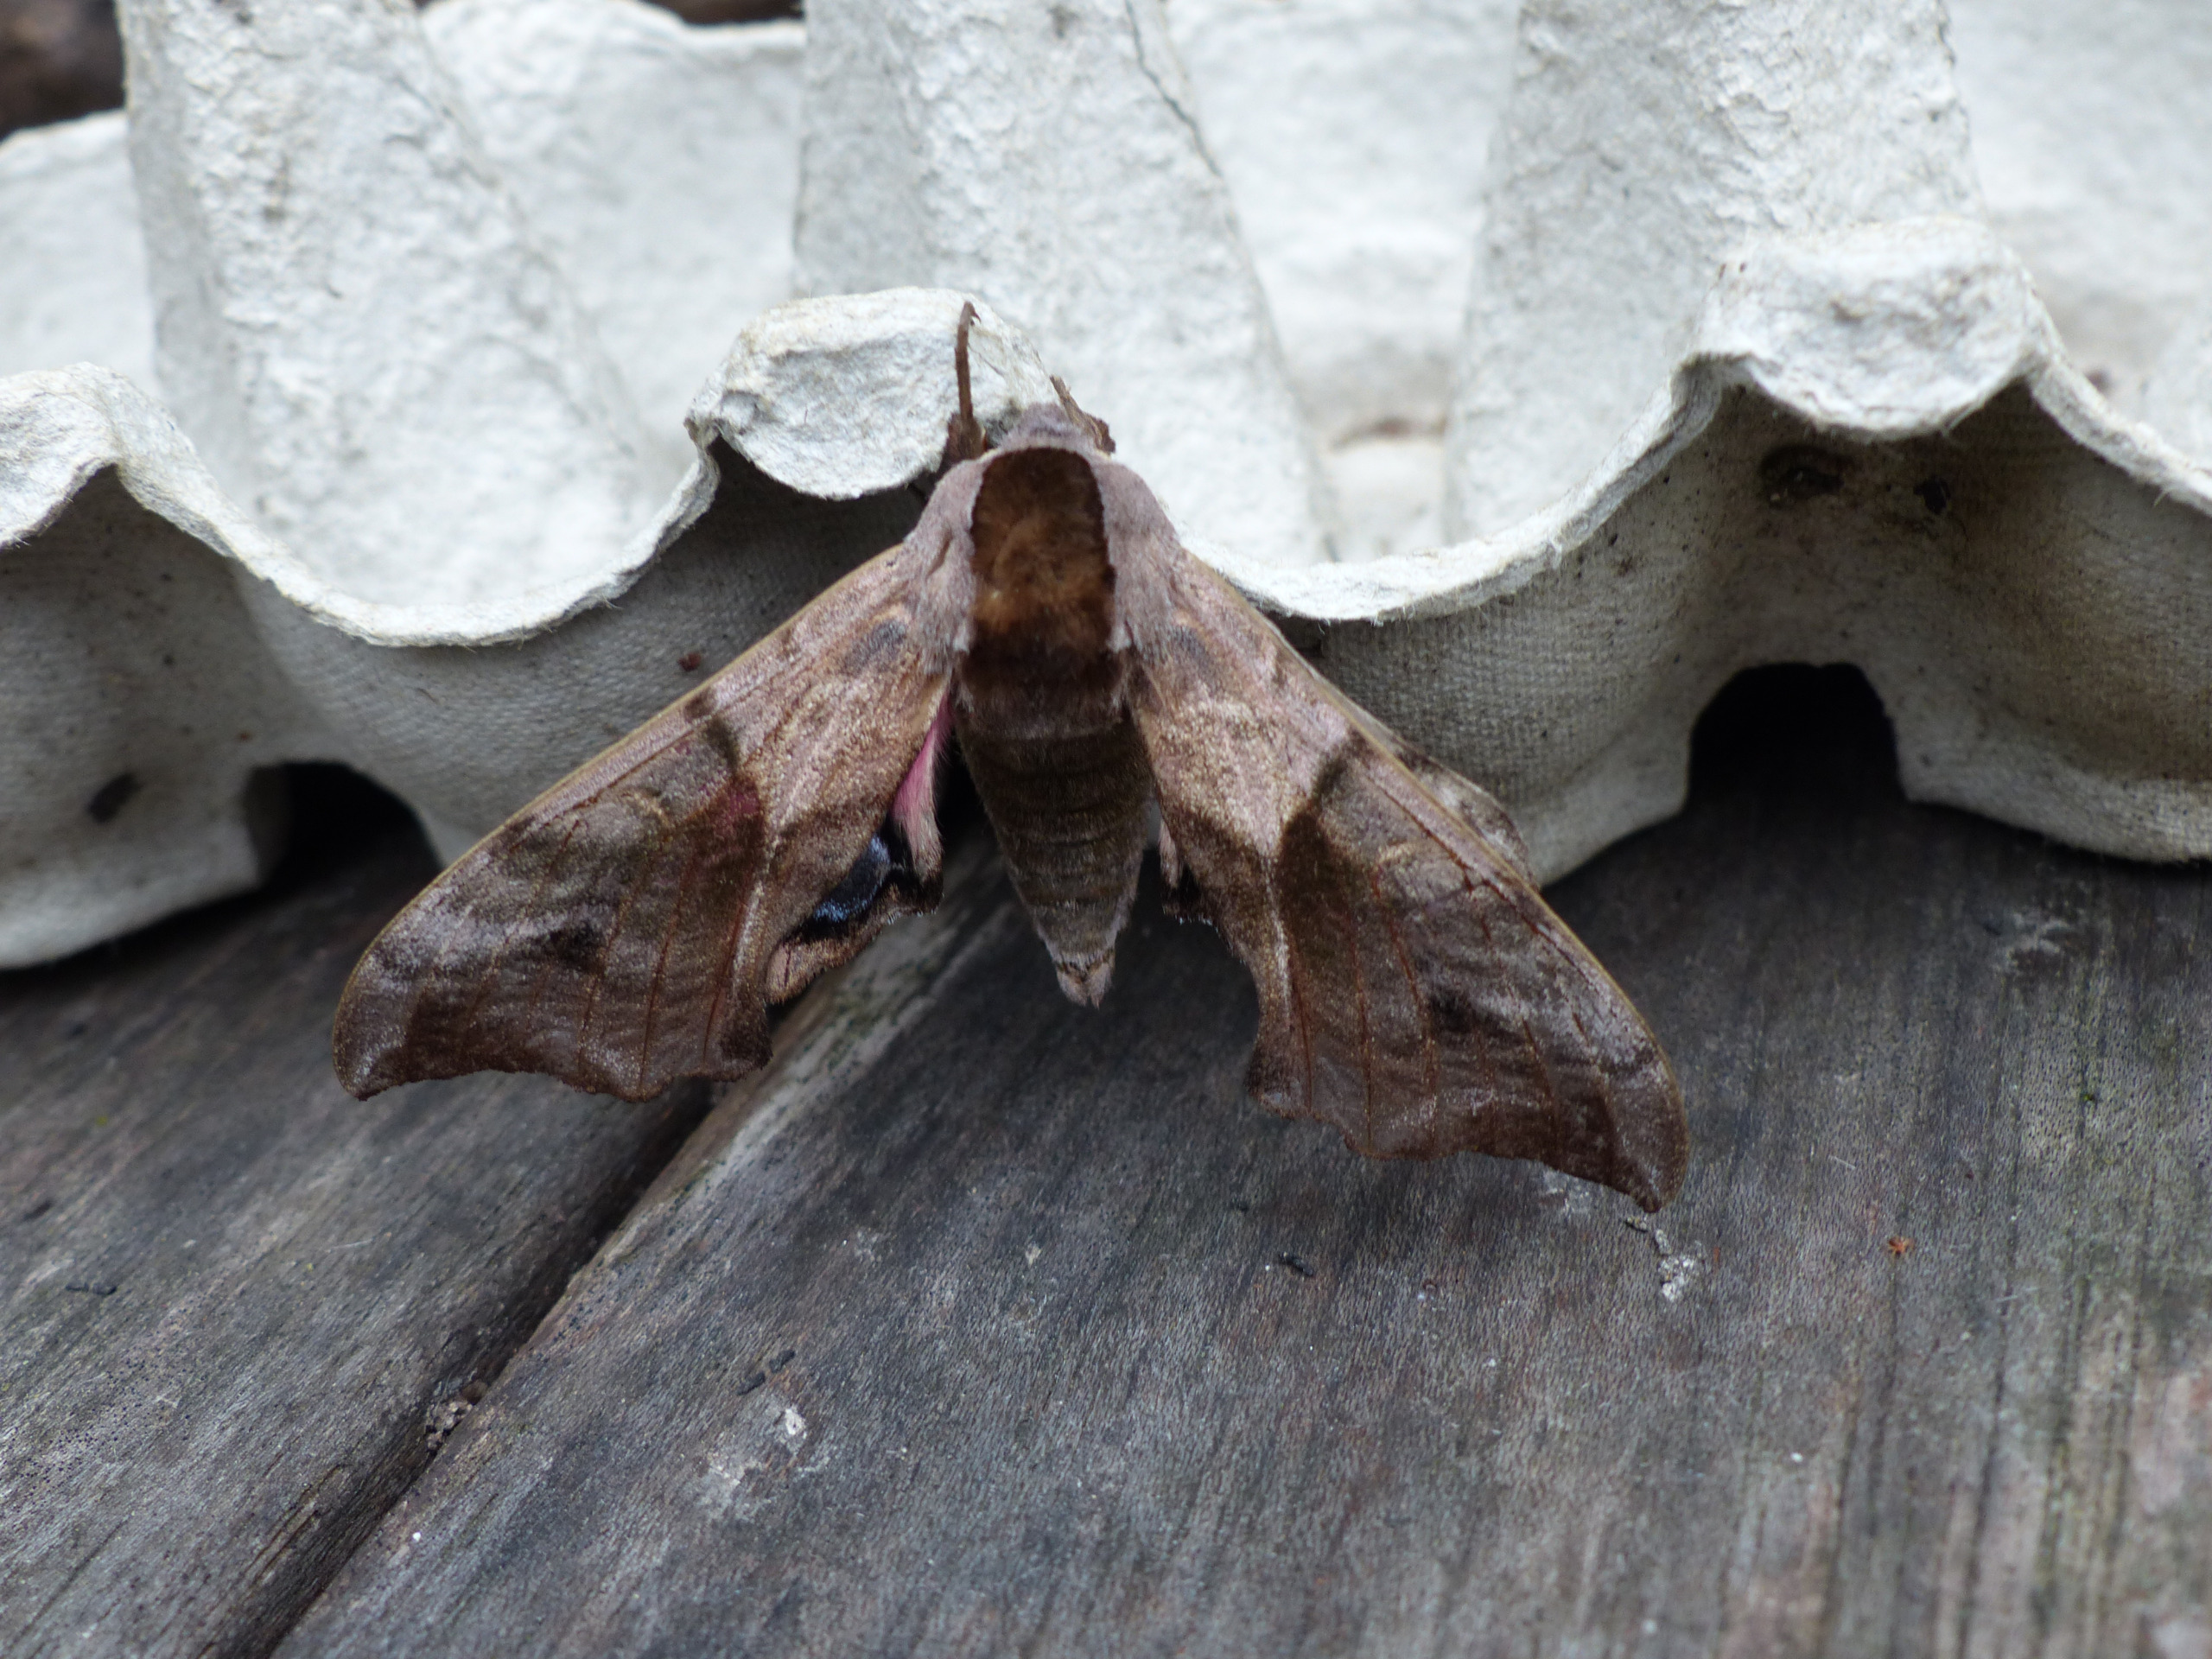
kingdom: Animalia
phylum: Arthropoda
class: Insecta
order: Lepidoptera
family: Sphingidae
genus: Smerinthus
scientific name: Smerinthus ocellata
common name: Aftenpåfugleøje
